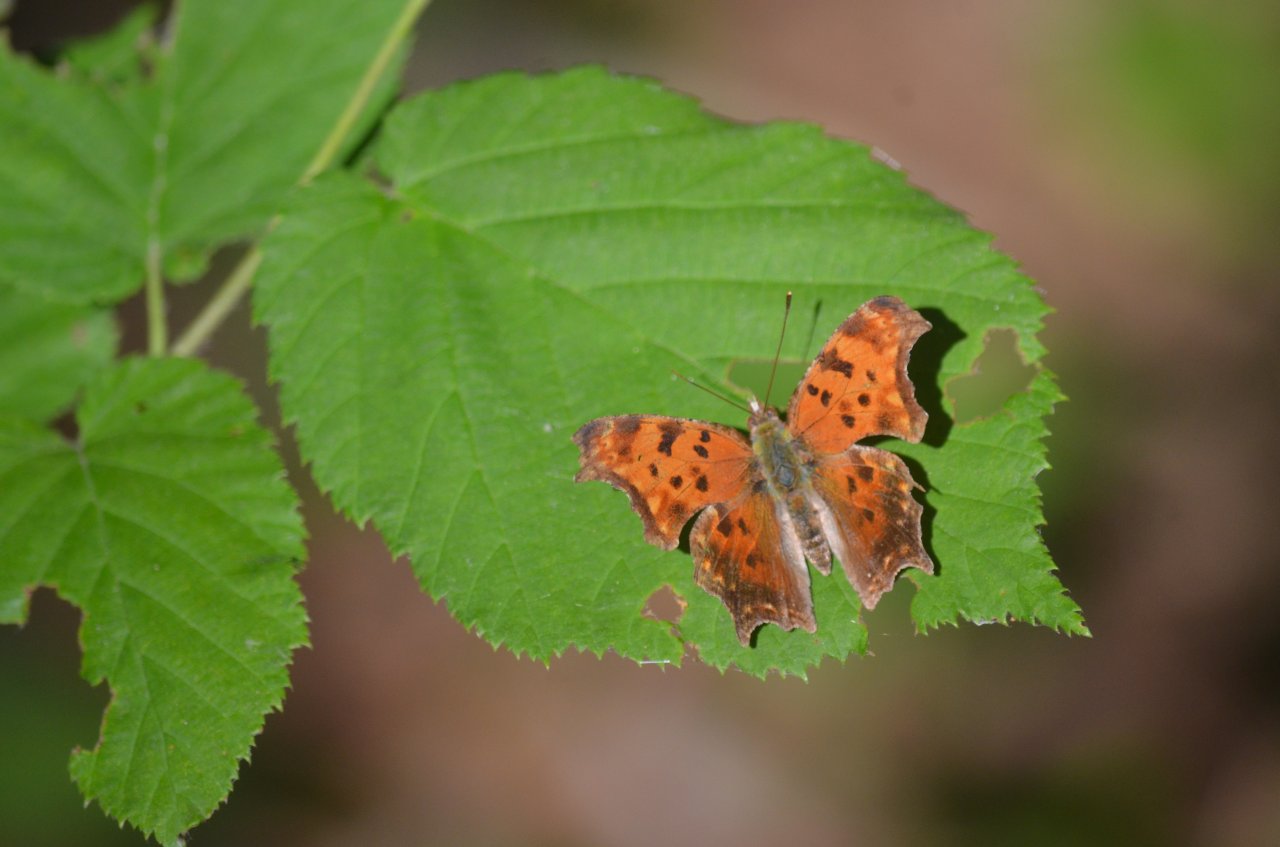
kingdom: Animalia
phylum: Arthropoda
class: Insecta
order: Lepidoptera
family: Nymphalidae
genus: Polygonia
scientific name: Polygonia comma
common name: Eastern Comma
